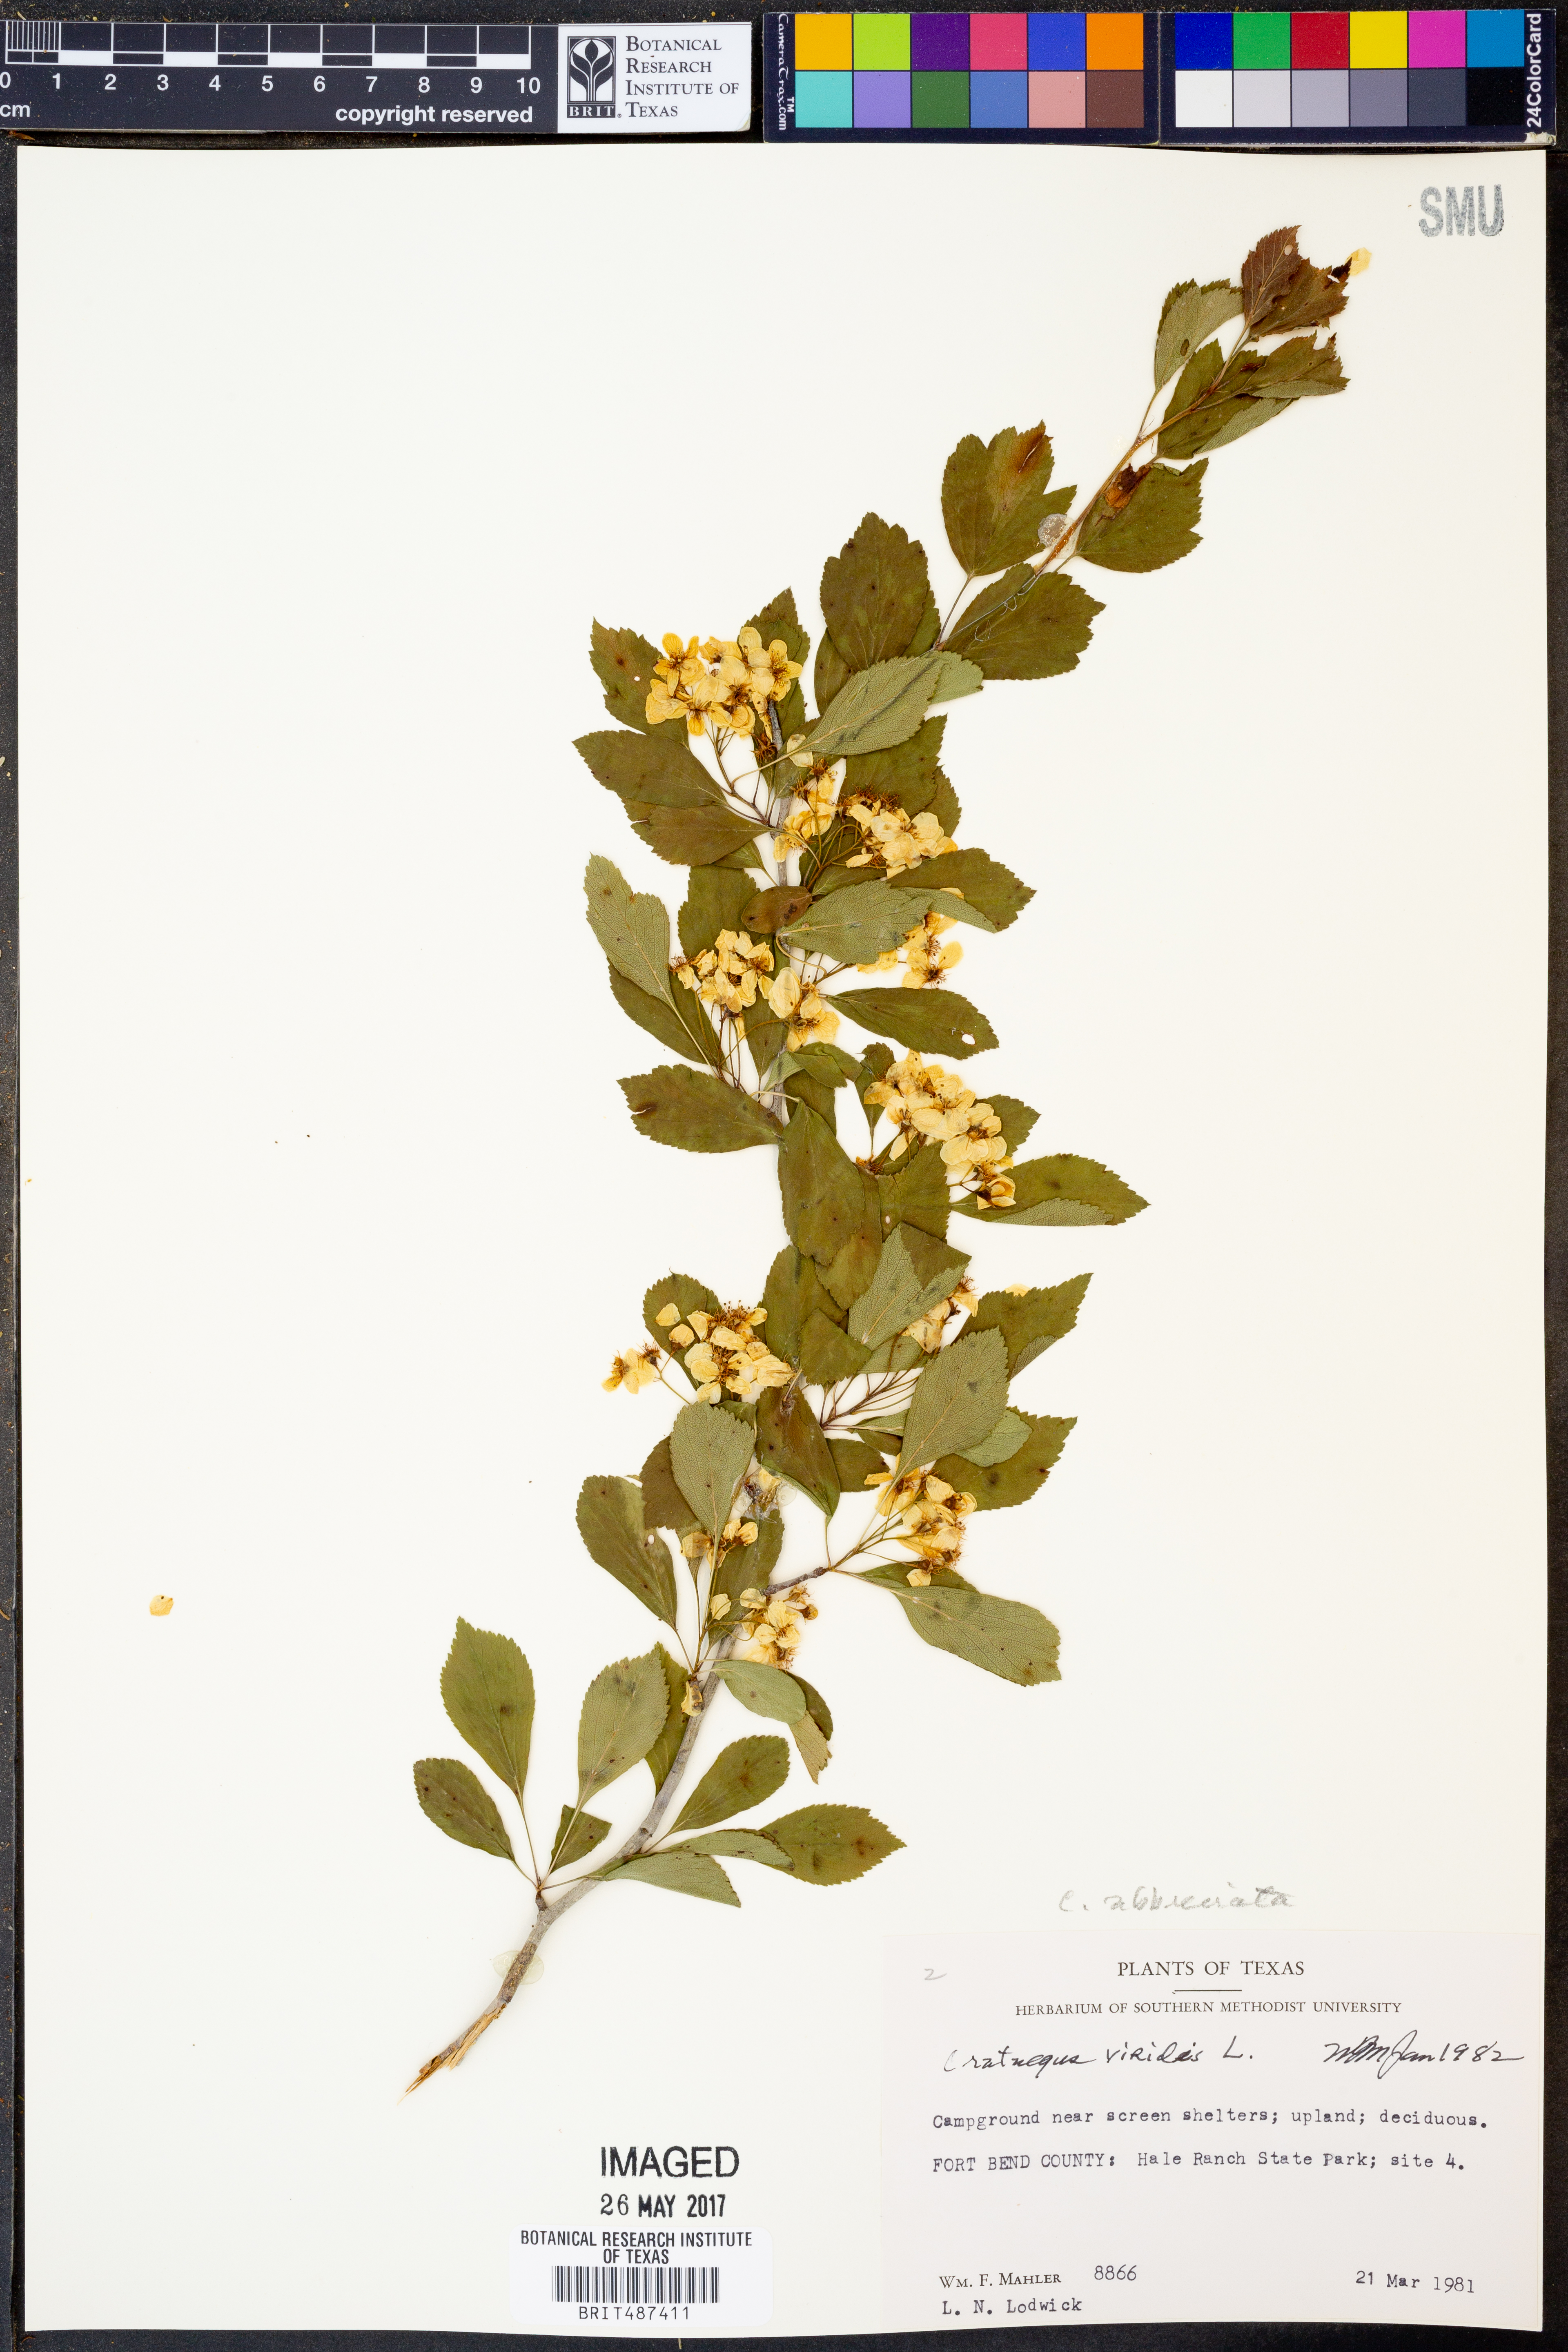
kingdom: Plantae
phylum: Tracheophyta
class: Magnoliopsida
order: Rosales
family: Rosaceae
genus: Crataegus
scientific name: Crataegus viridis
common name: Southernthorn
